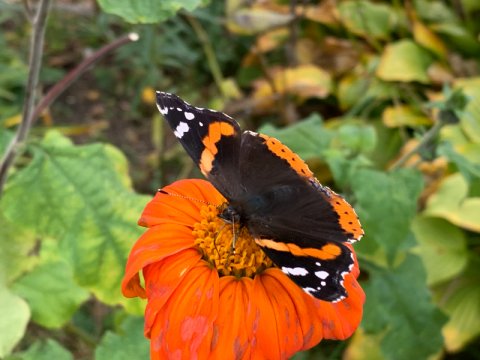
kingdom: Animalia
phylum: Arthropoda
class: Insecta
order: Lepidoptera
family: Nymphalidae
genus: Vanessa
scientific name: Vanessa atalanta
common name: Red Admiral
